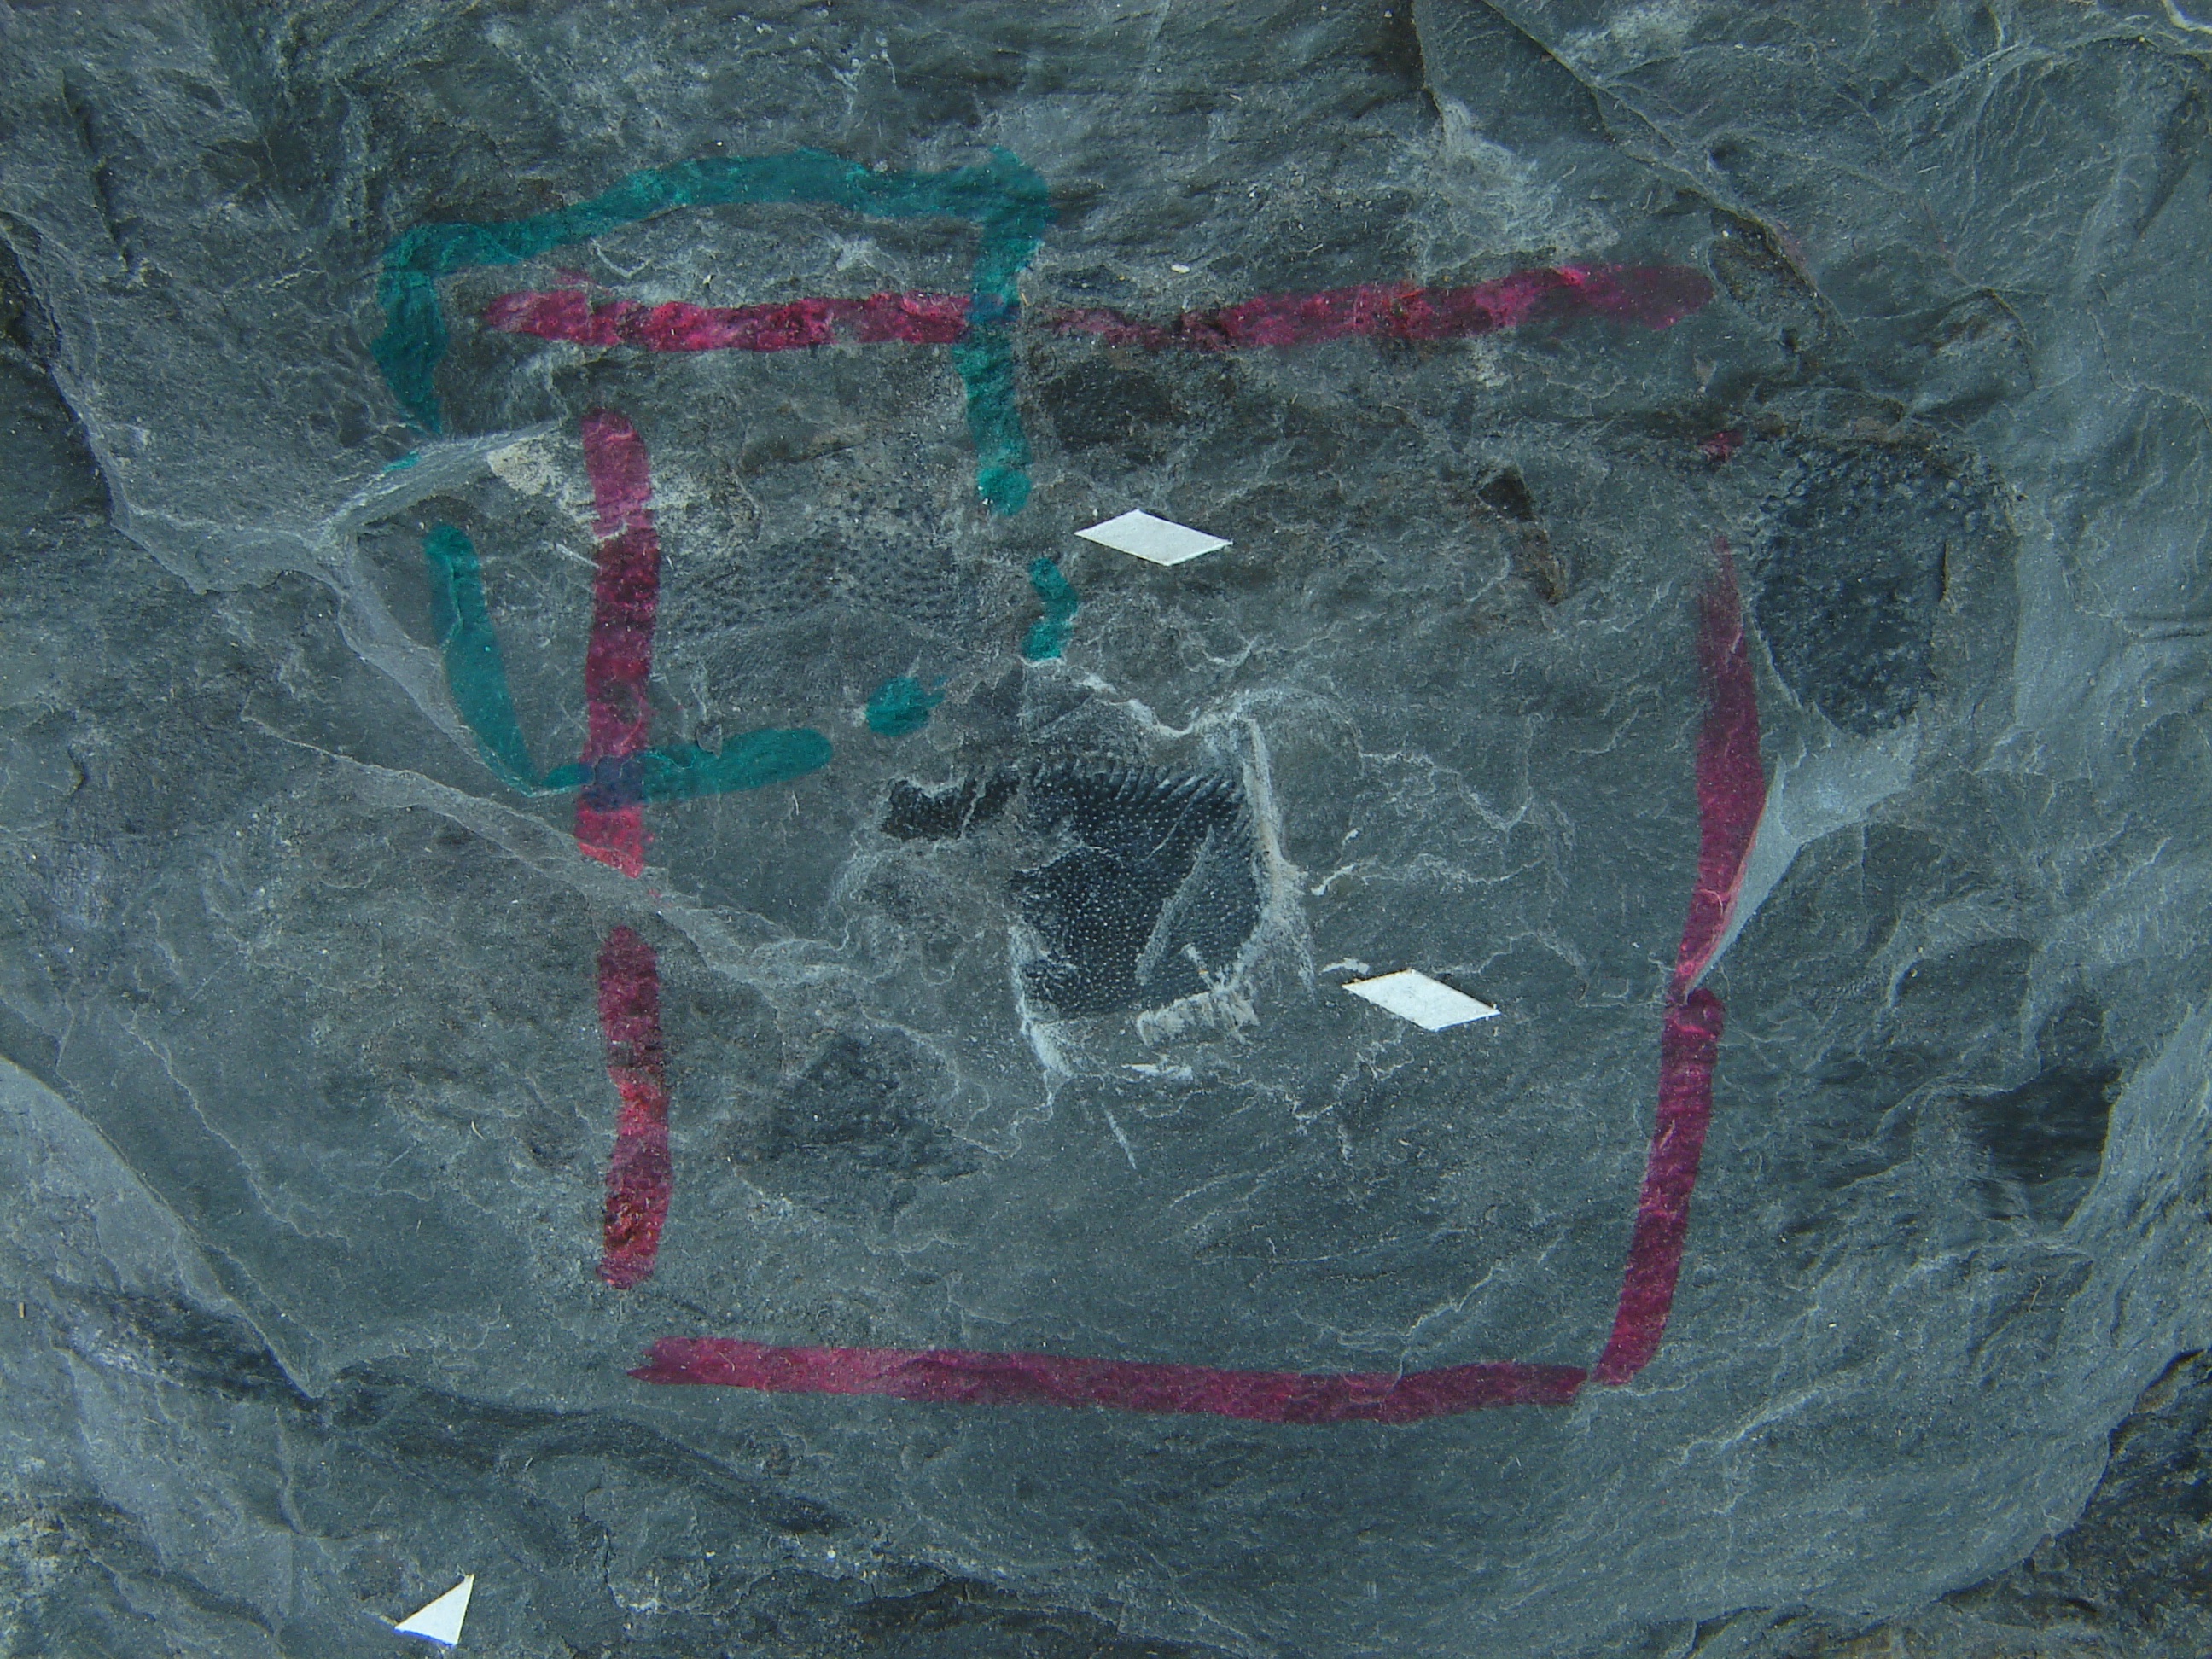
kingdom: Animalia
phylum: Chordata
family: Porolepididae
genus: Porolepis
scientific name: Porolepis
